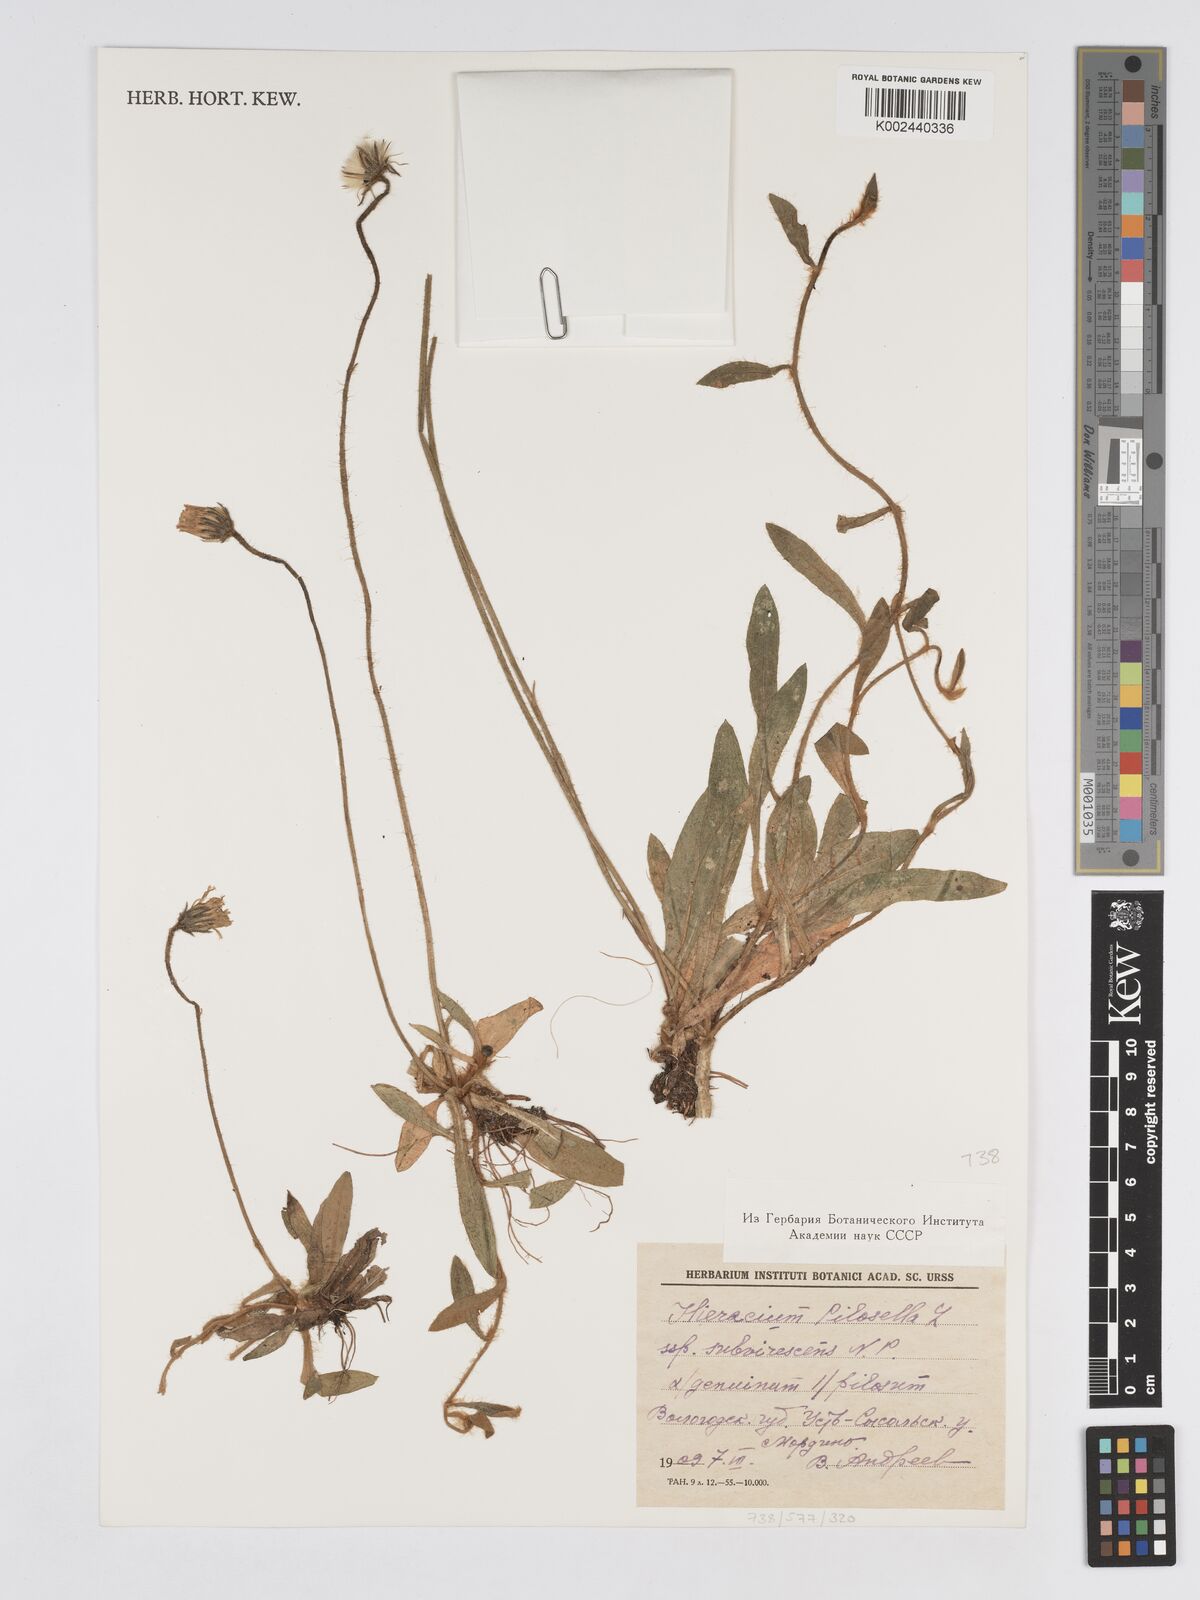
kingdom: Plantae
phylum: Tracheophyta
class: Magnoliopsida
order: Asterales
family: Asteraceae
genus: Pilosella
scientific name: Pilosella officinarum
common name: Mouse-ear hawkweed
